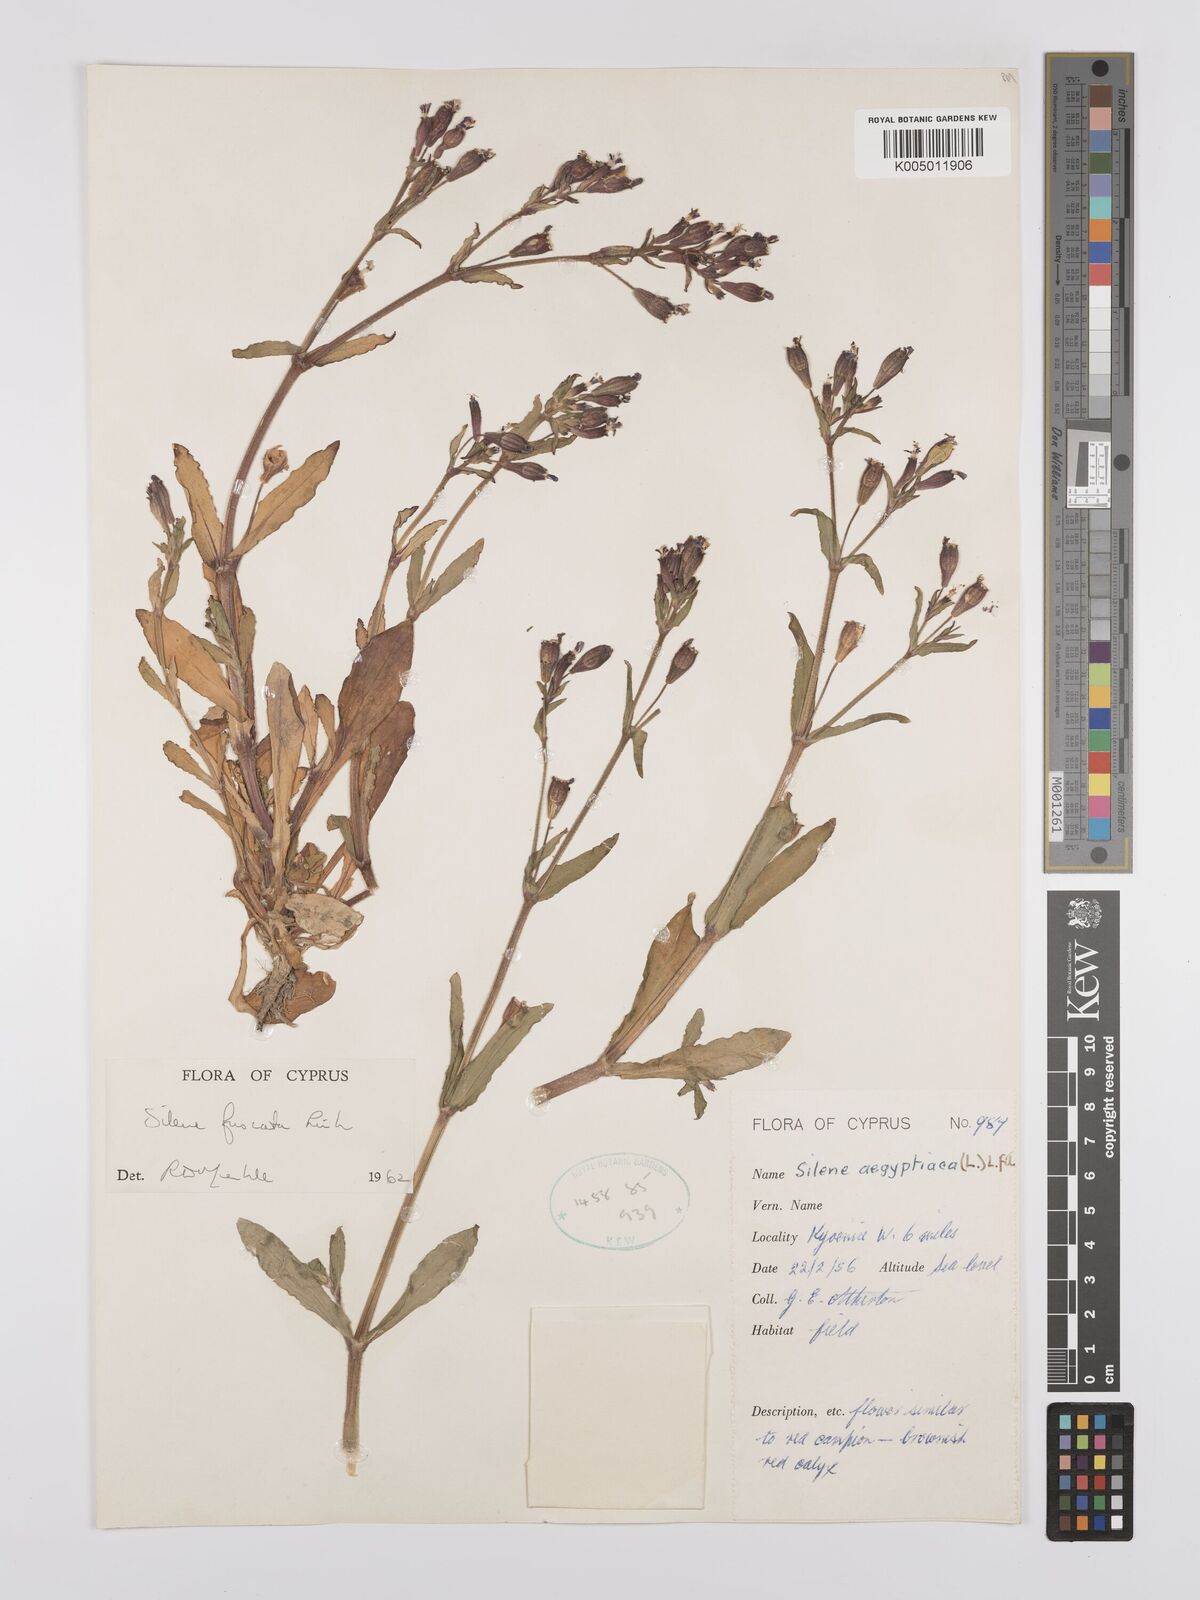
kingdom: Plantae
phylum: Tracheophyta
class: Magnoliopsida
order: Caryophyllales
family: Caryophyllaceae
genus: Silene
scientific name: Silene fuscata
